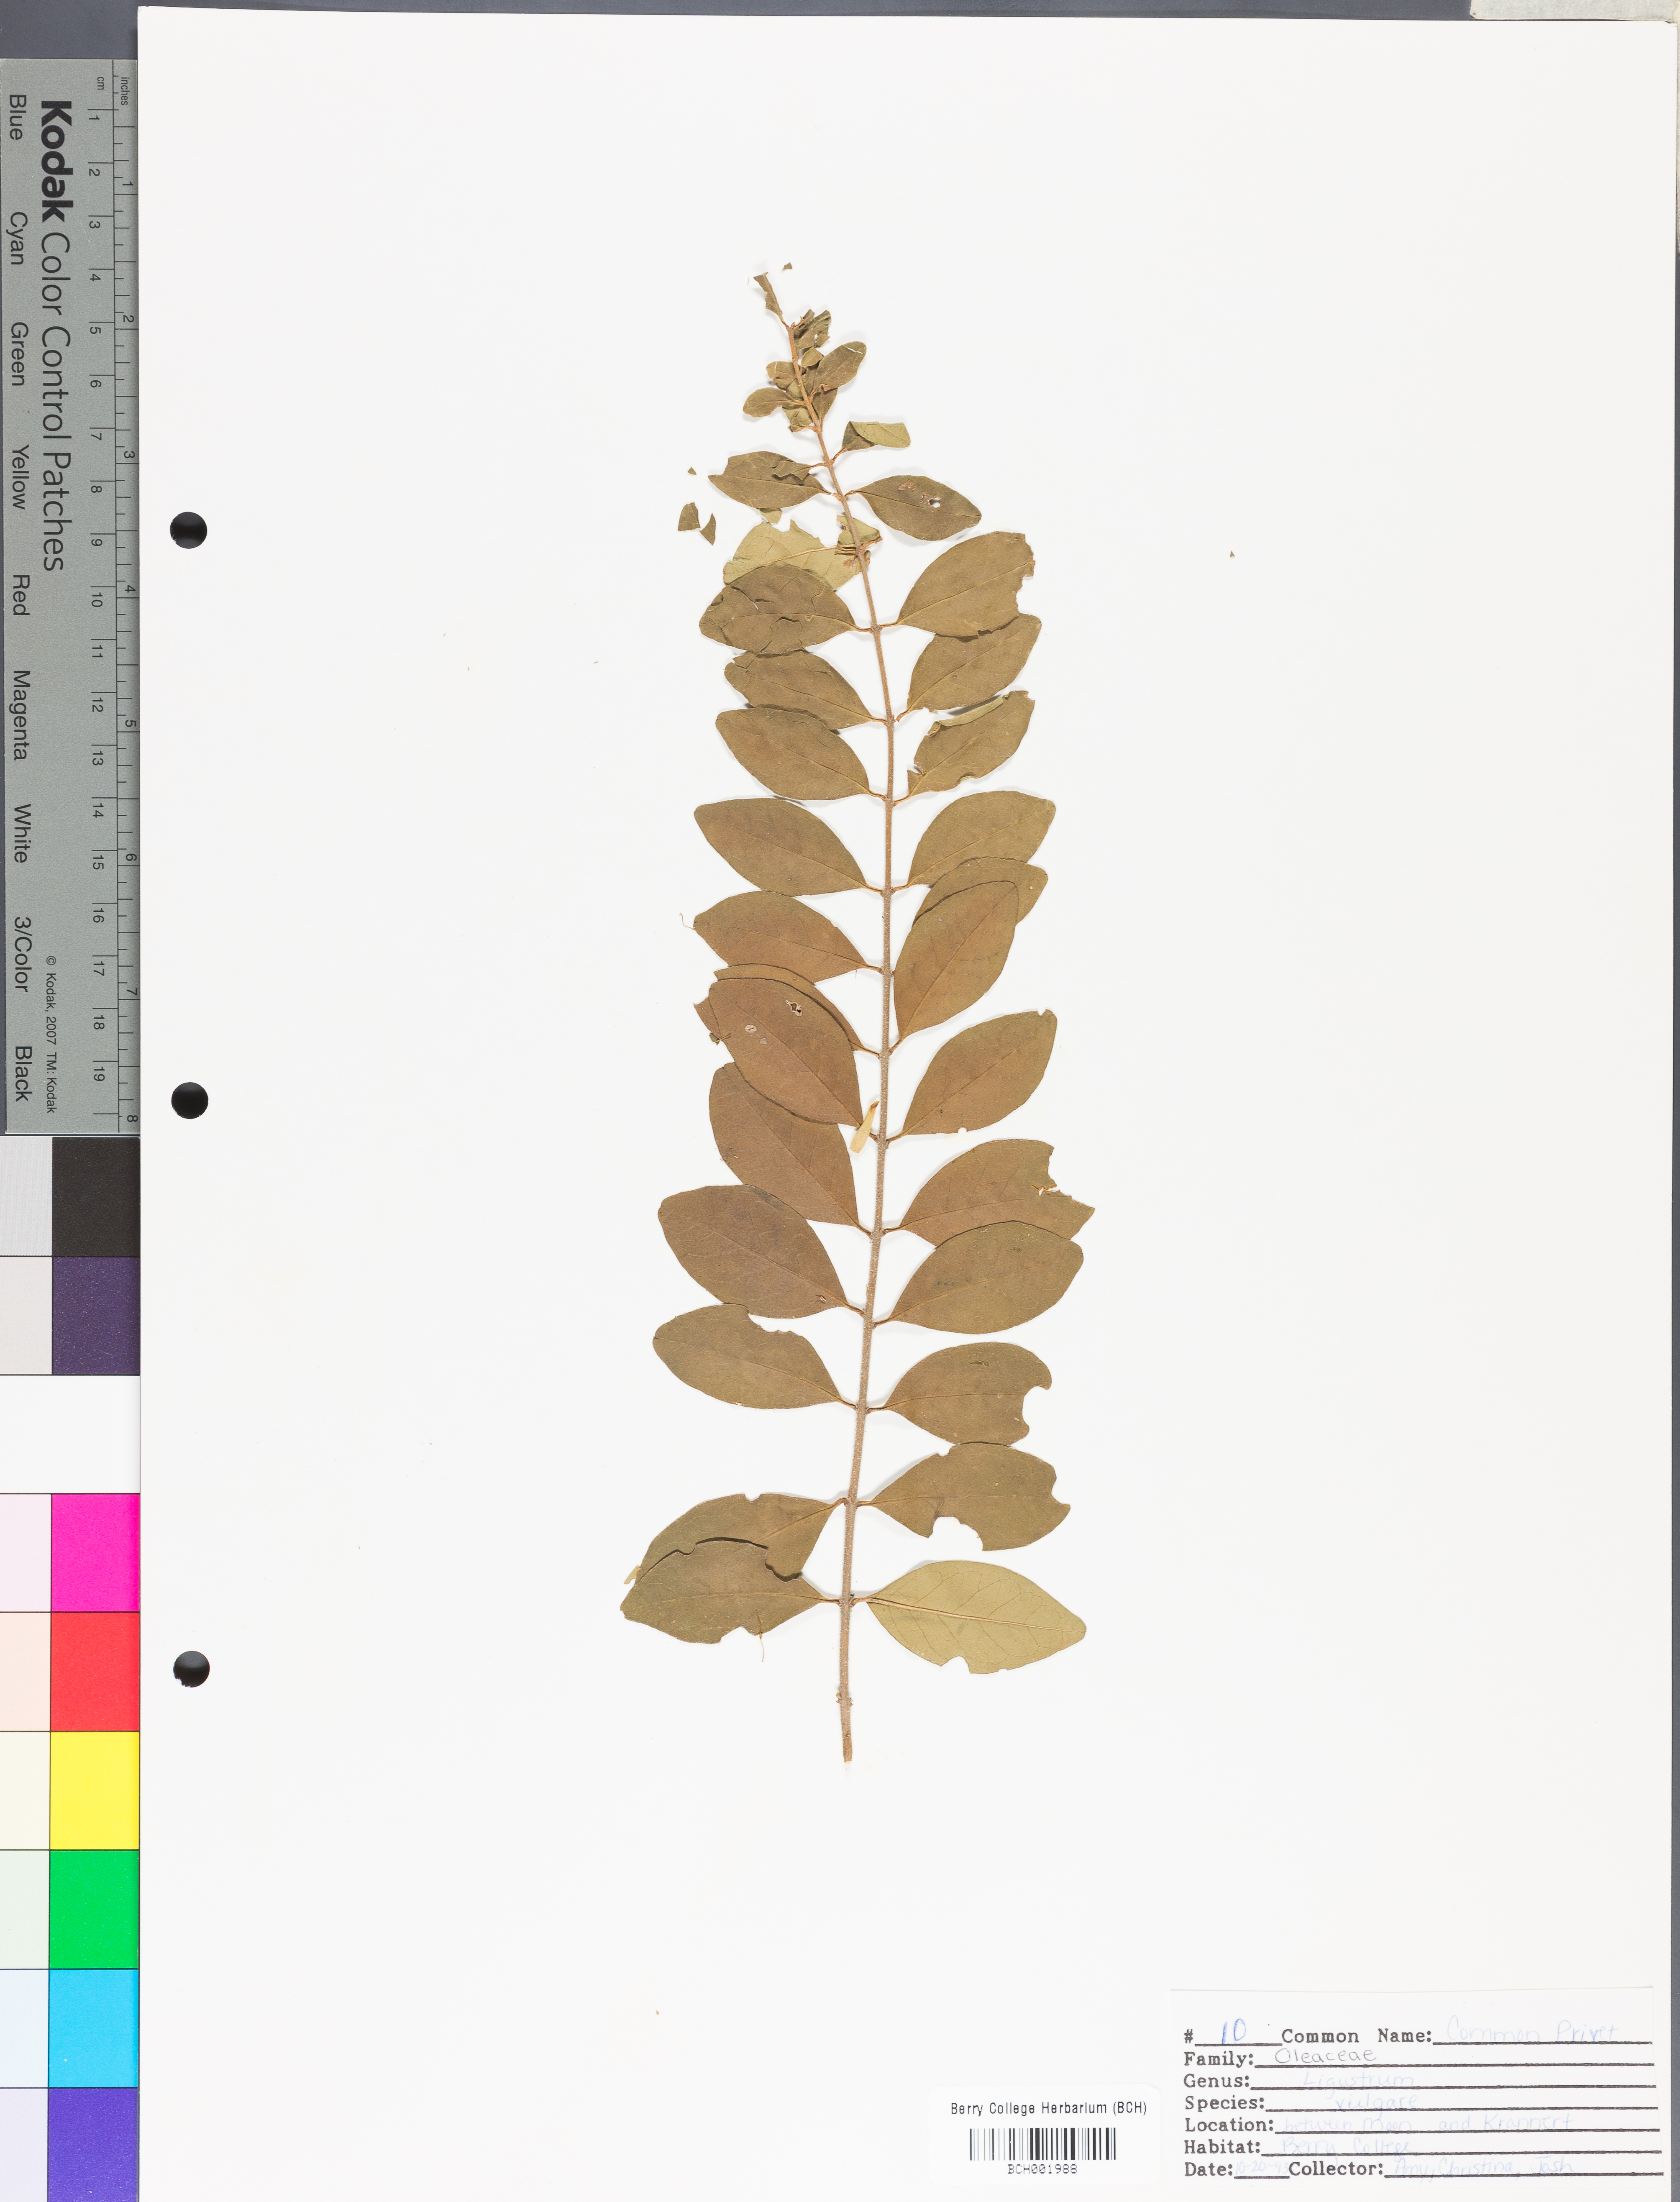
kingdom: Plantae
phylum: Tracheophyta
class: Magnoliopsida
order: Lamiales
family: Oleaceae
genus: Ligustrum
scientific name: Ligustrum vulgare
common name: Wild privet
